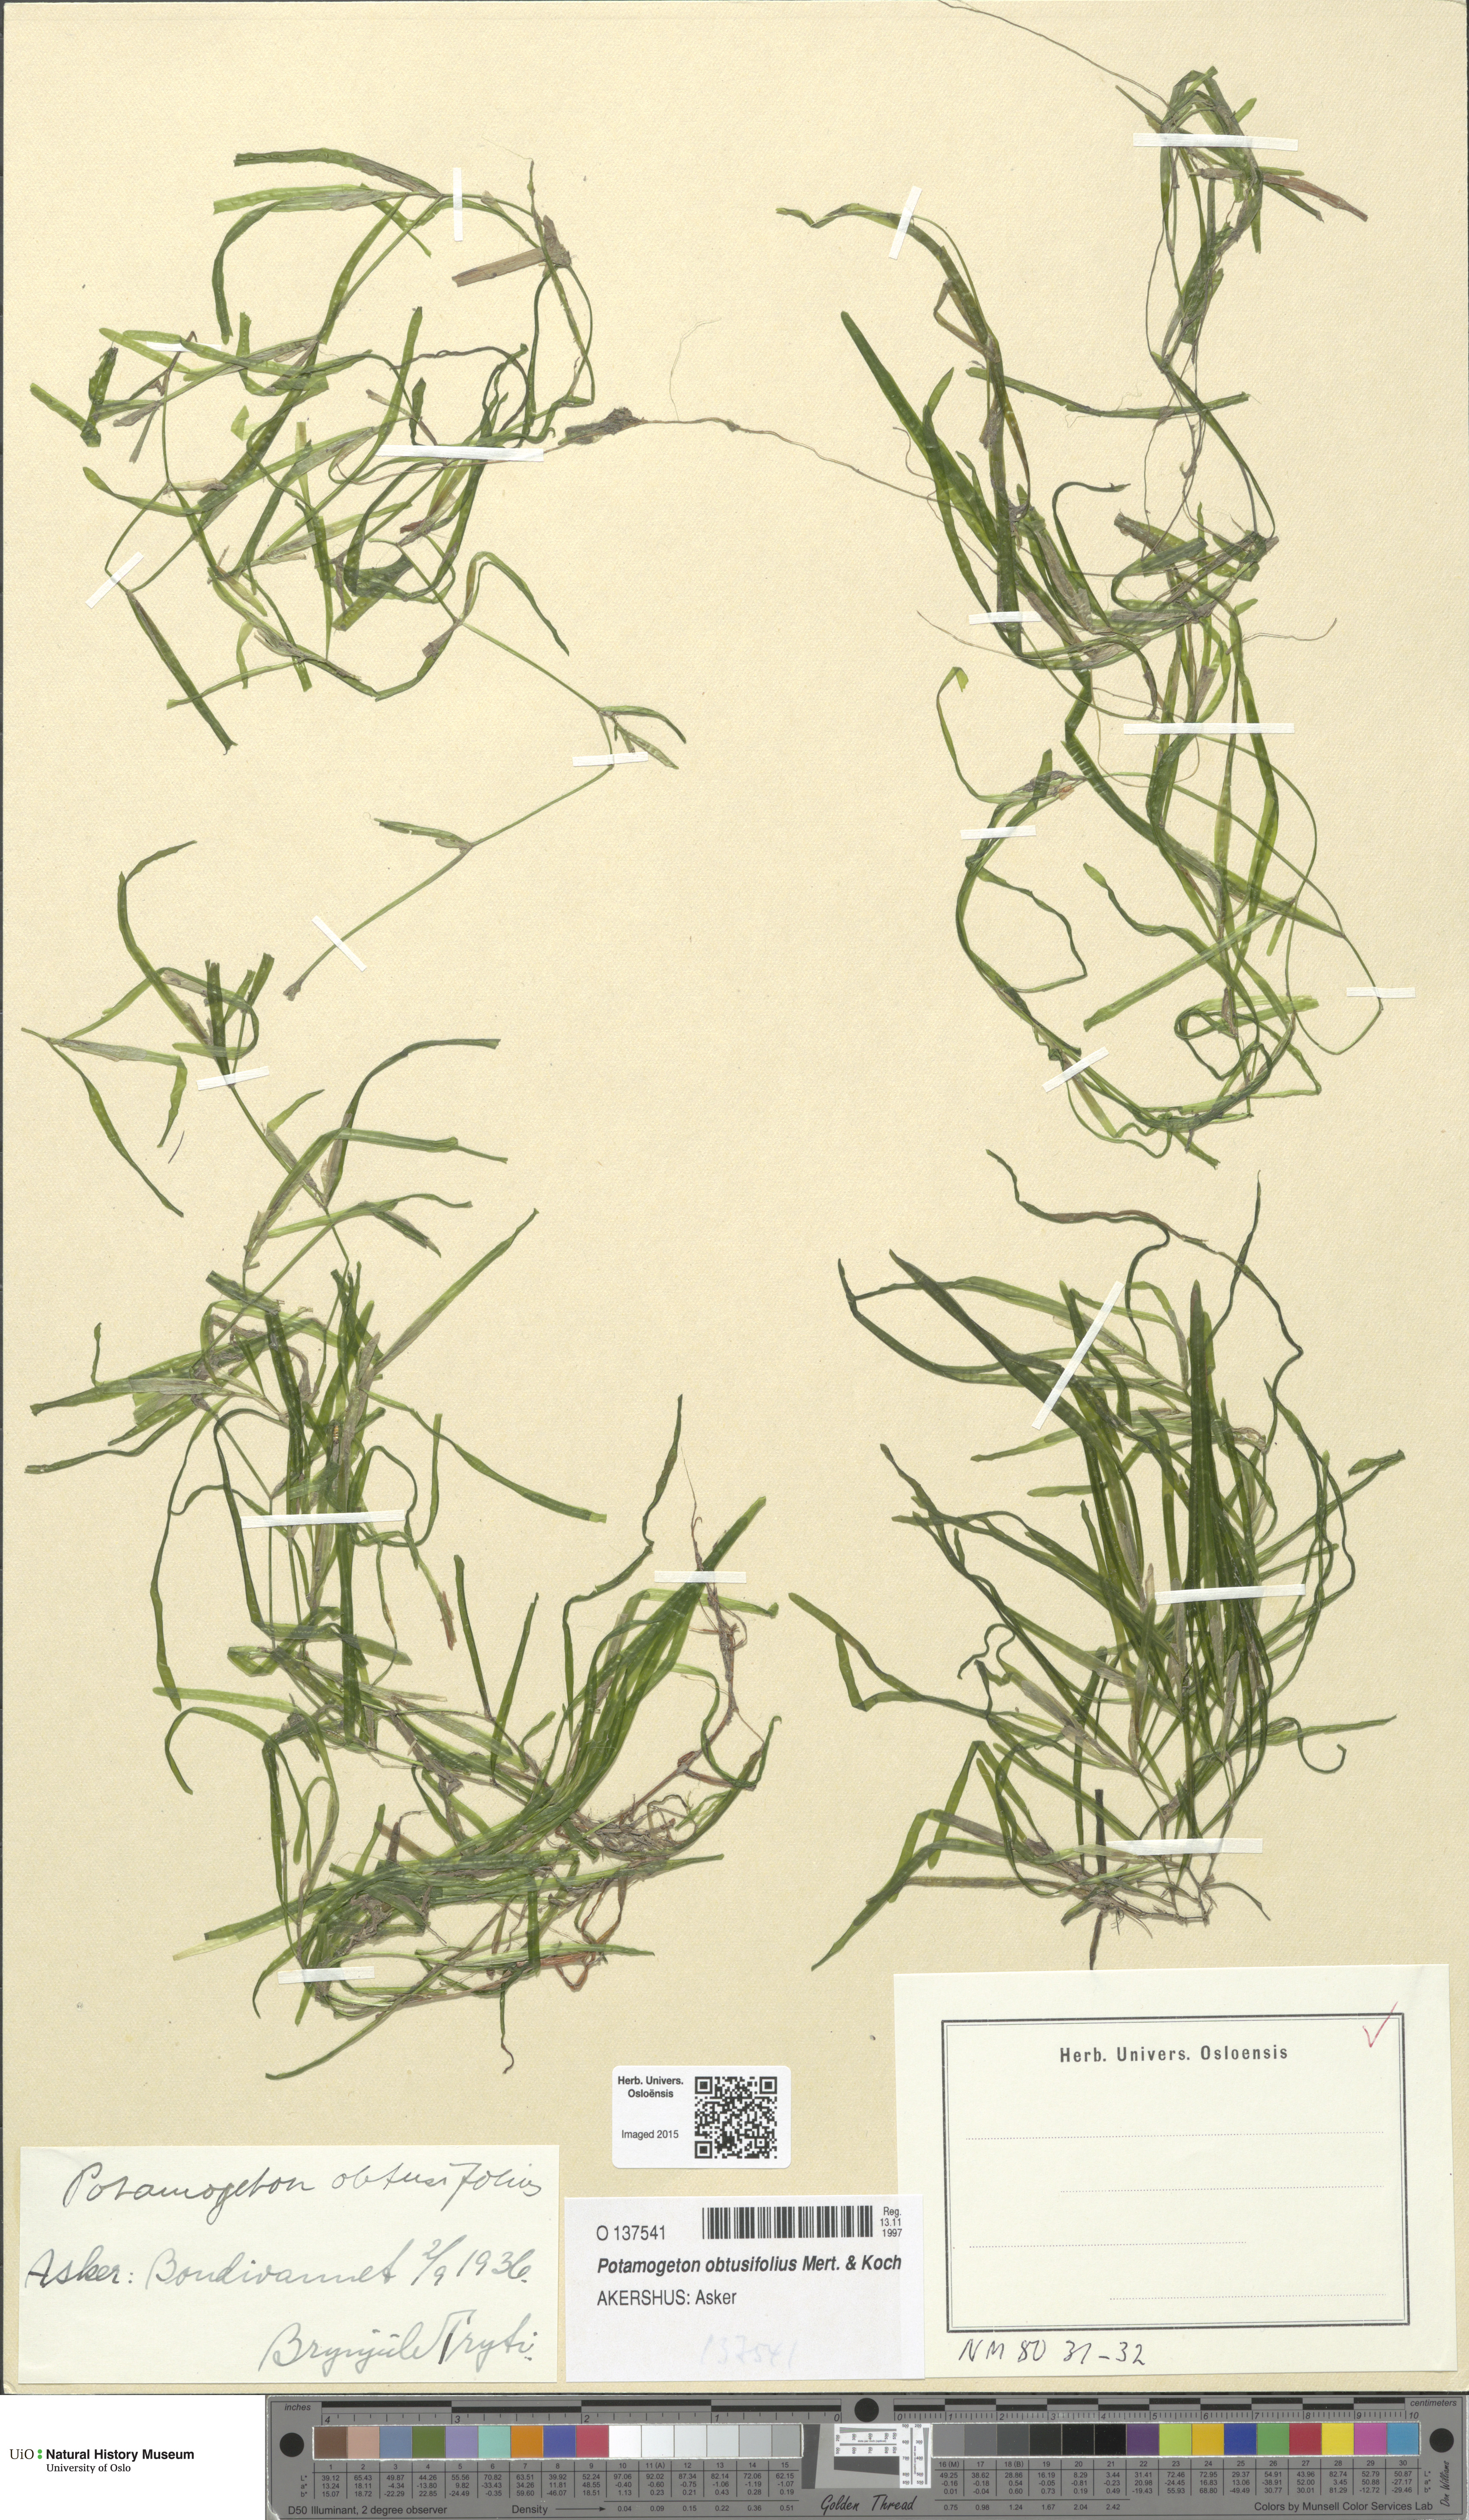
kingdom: Plantae
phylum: Tracheophyta
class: Liliopsida
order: Alismatales
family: Potamogetonaceae
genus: Potamogeton
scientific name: Potamogeton obtusifolius
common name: Blunt-leaved pondweed
